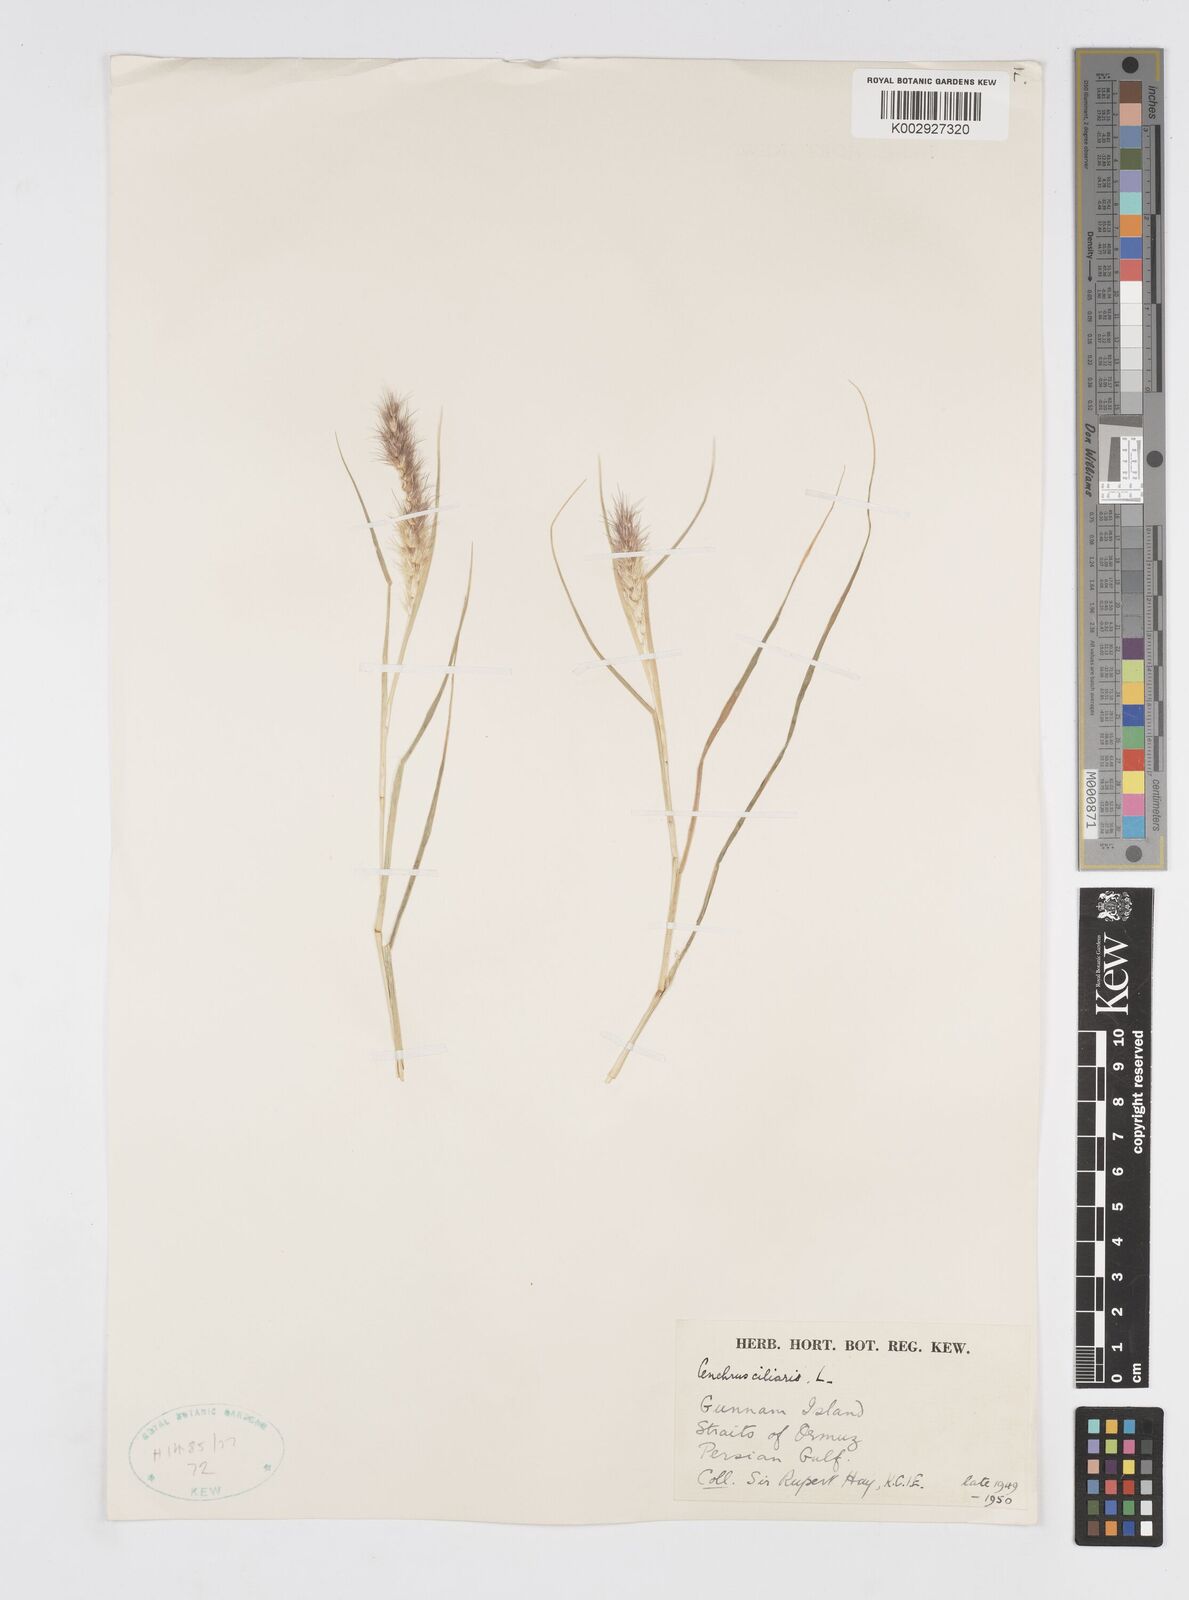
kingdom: Plantae
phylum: Tracheophyta
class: Liliopsida
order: Poales
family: Poaceae
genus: Cenchrus
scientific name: Cenchrus ciliaris
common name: Buffelgrass
